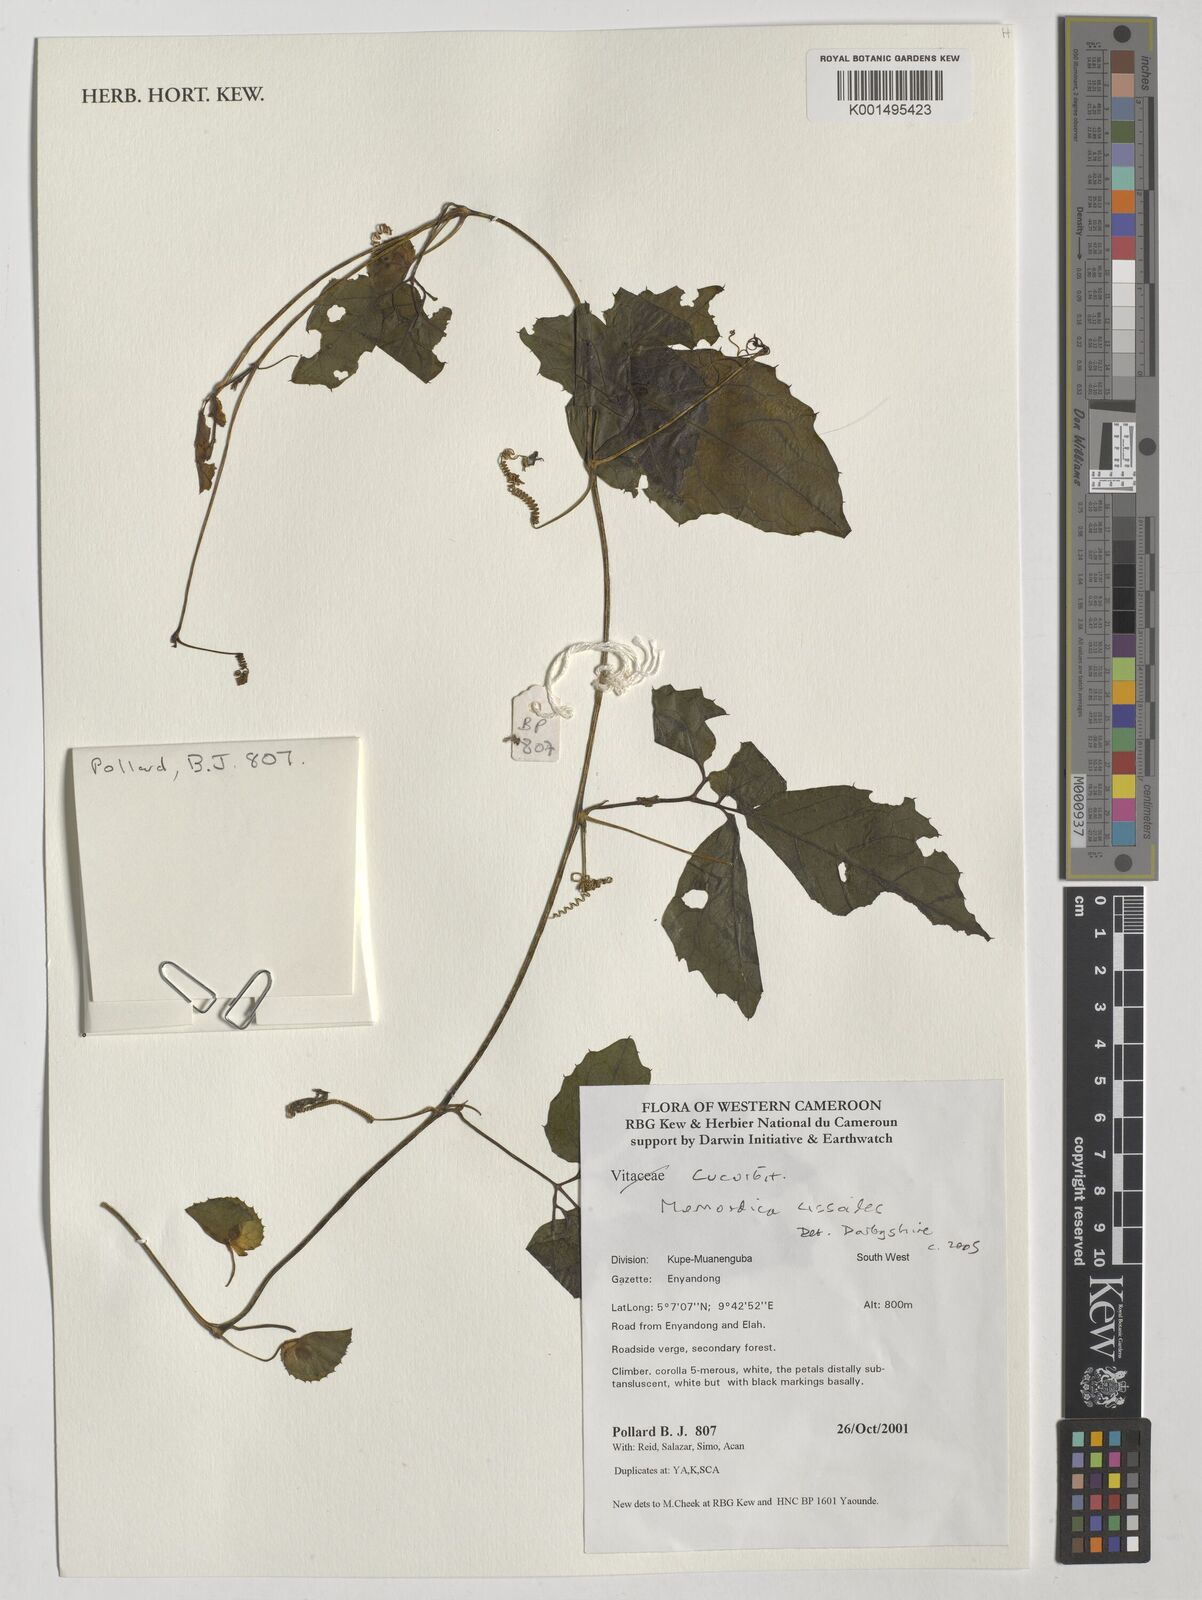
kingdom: Plantae
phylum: Tracheophyta
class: Magnoliopsida
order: Cucurbitales
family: Cucurbitaceae
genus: Momordica
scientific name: Momordica cissoides
